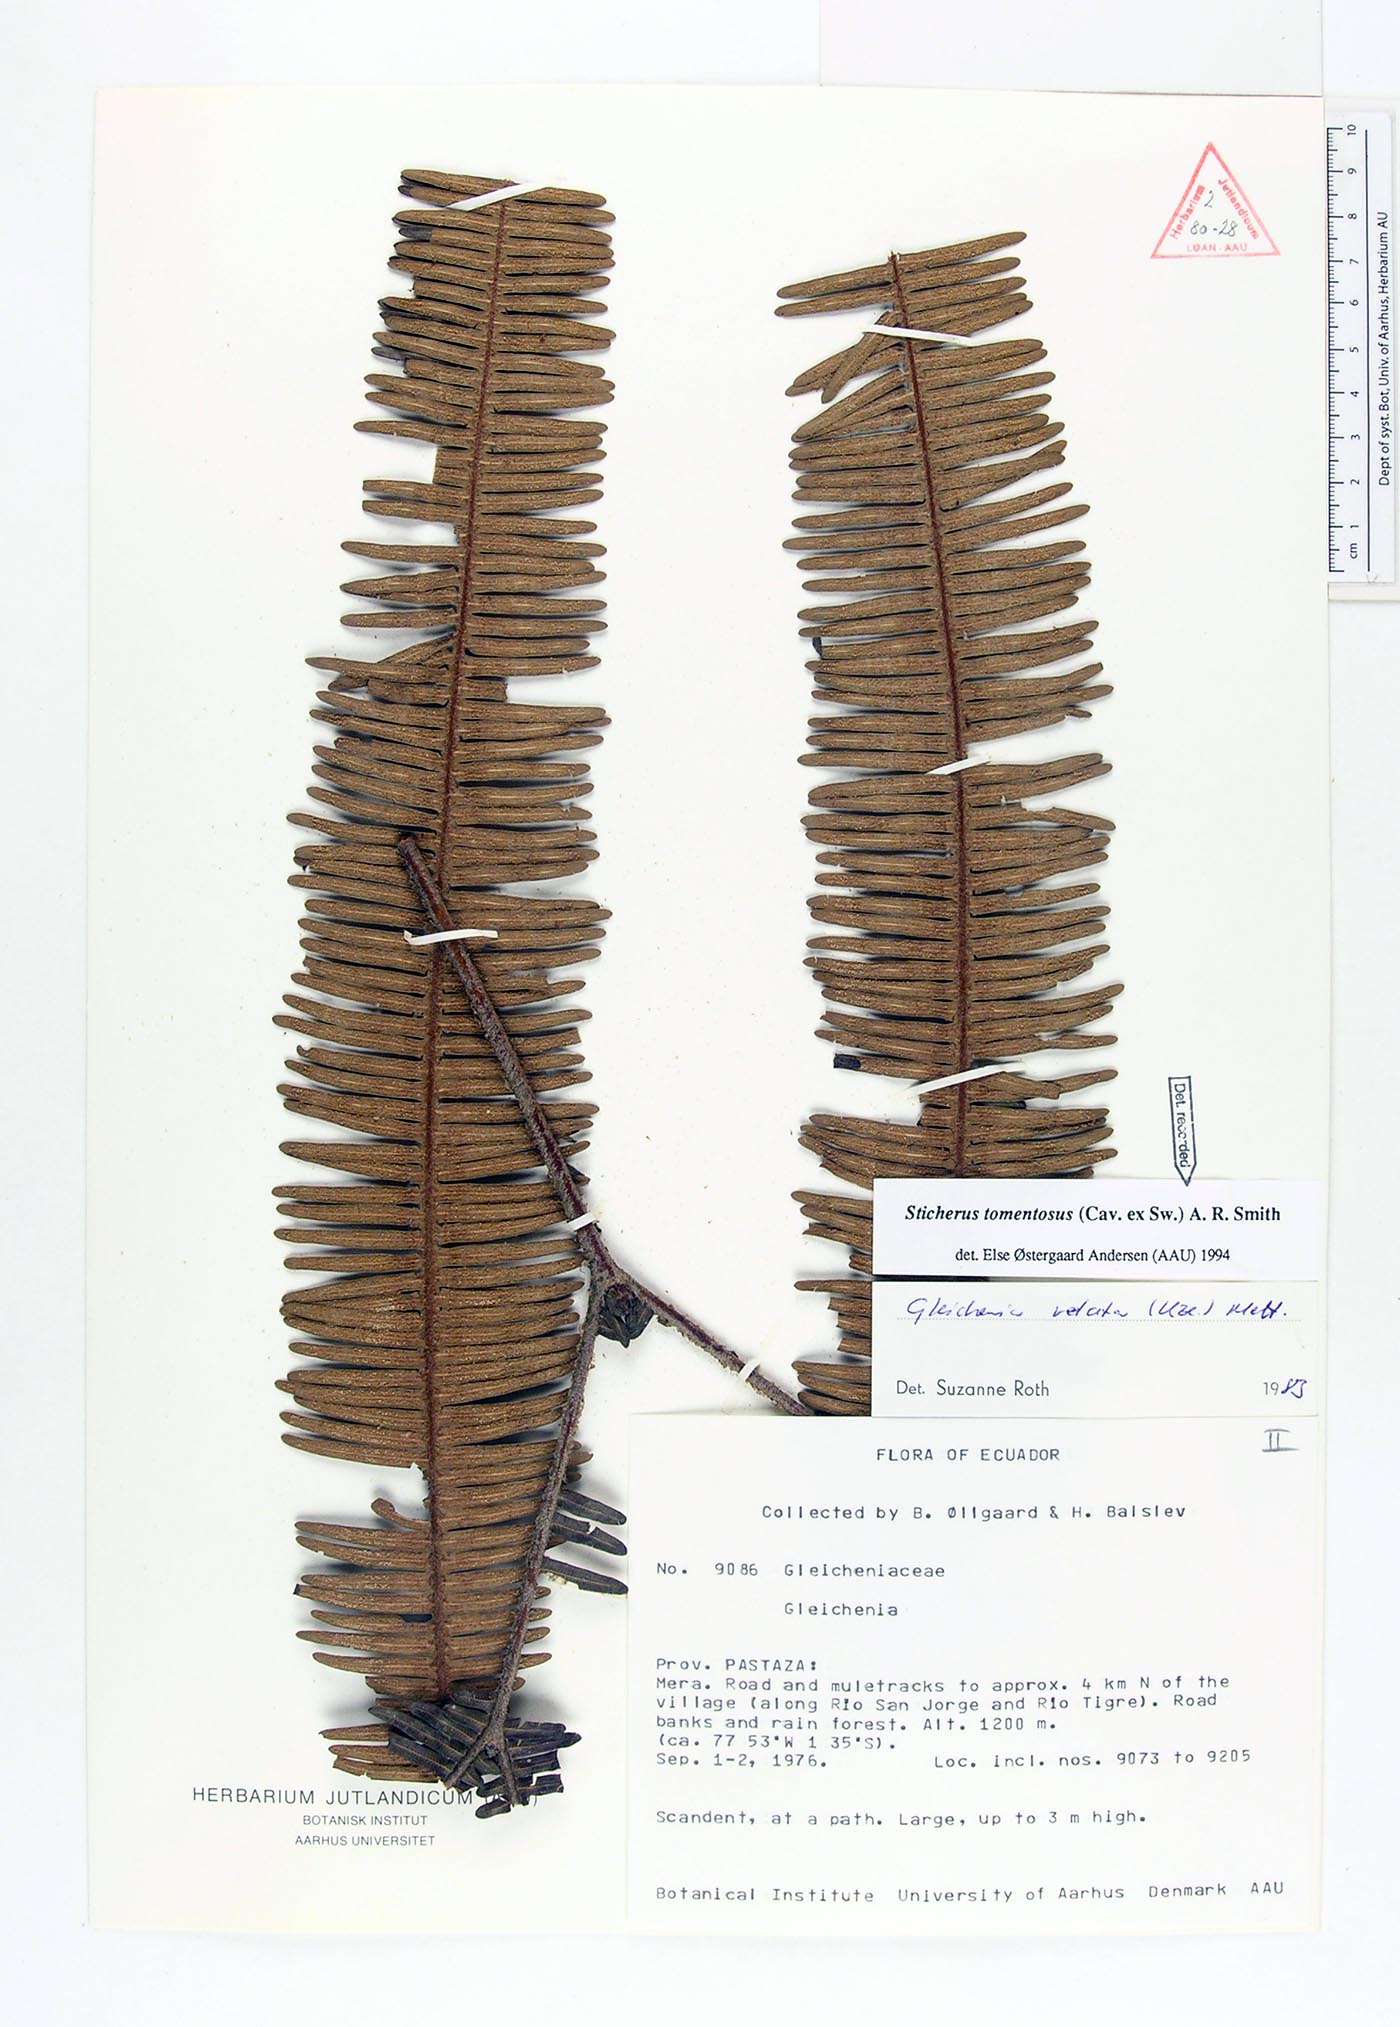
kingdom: Plantae
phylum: Tracheophyta
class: Polypodiopsida
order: Gleicheniales
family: Gleicheniaceae
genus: Sticherus
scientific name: Sticherus tomentosus
